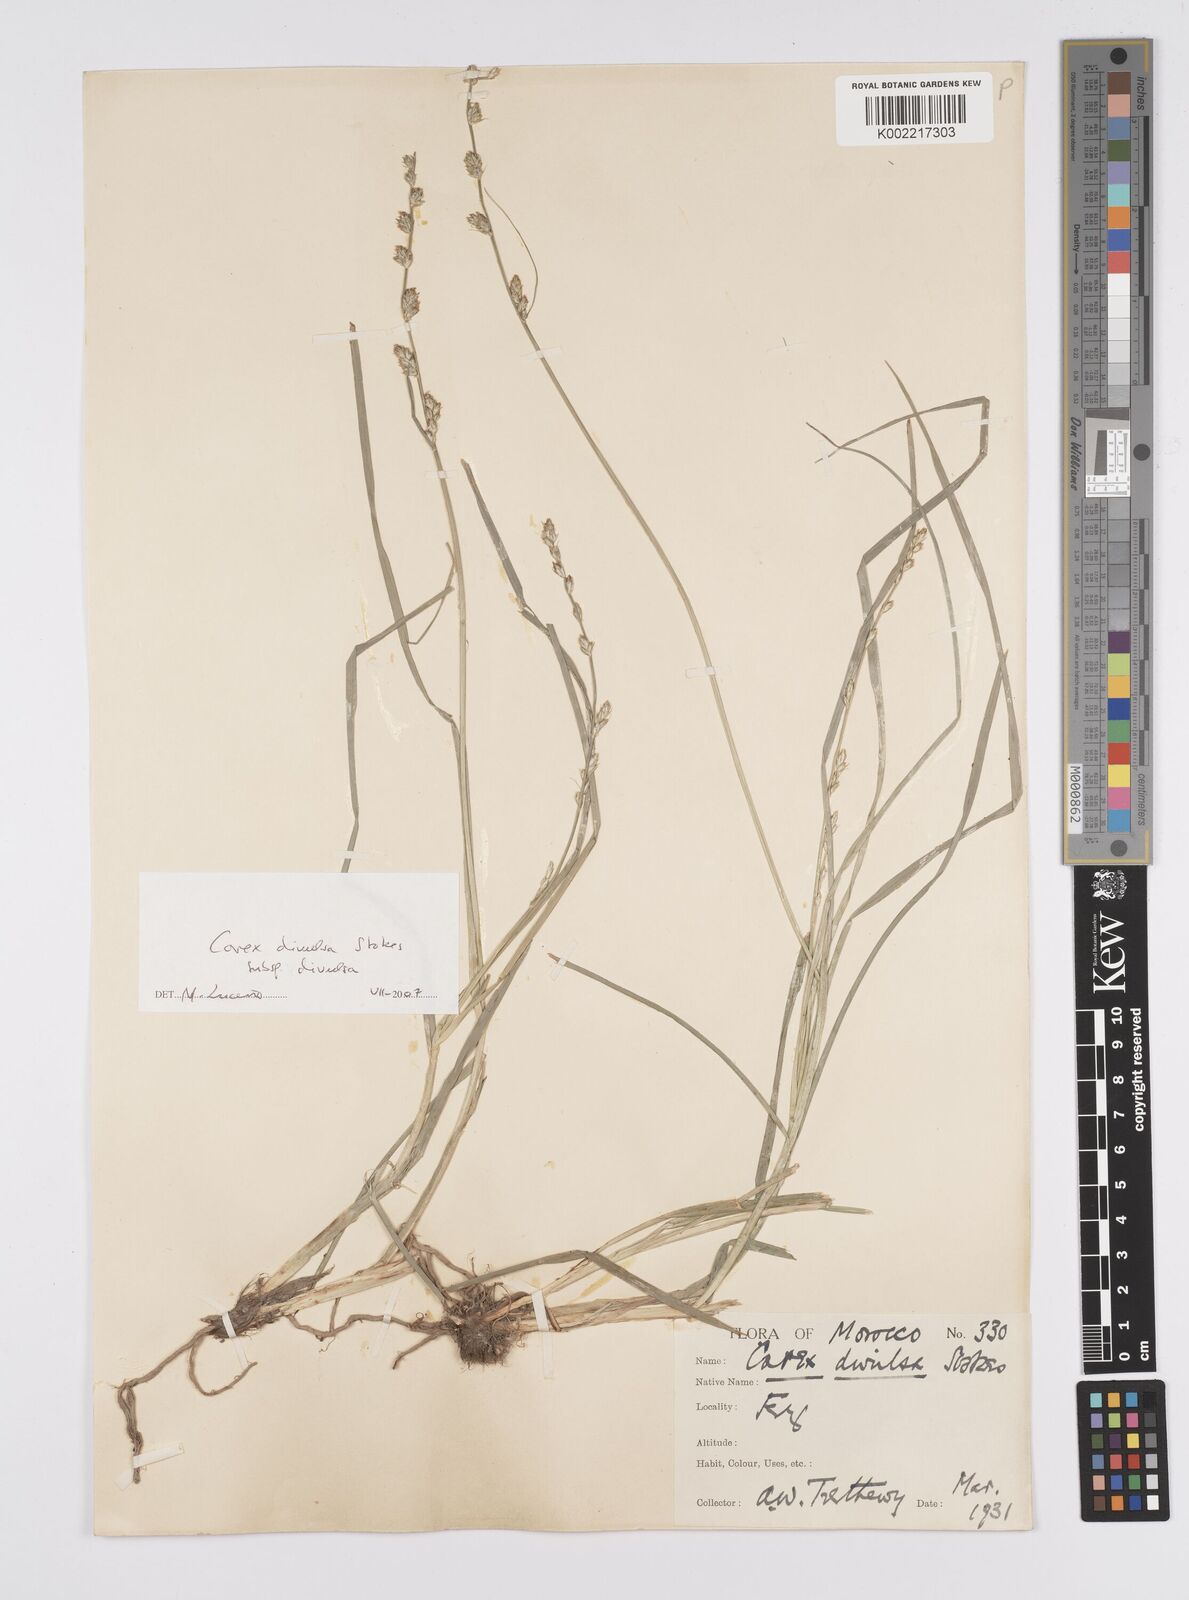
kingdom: Plantae
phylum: Tracheophyta
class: Liliopsida
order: Poales
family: Cyperaceae
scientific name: Cyperaceae
